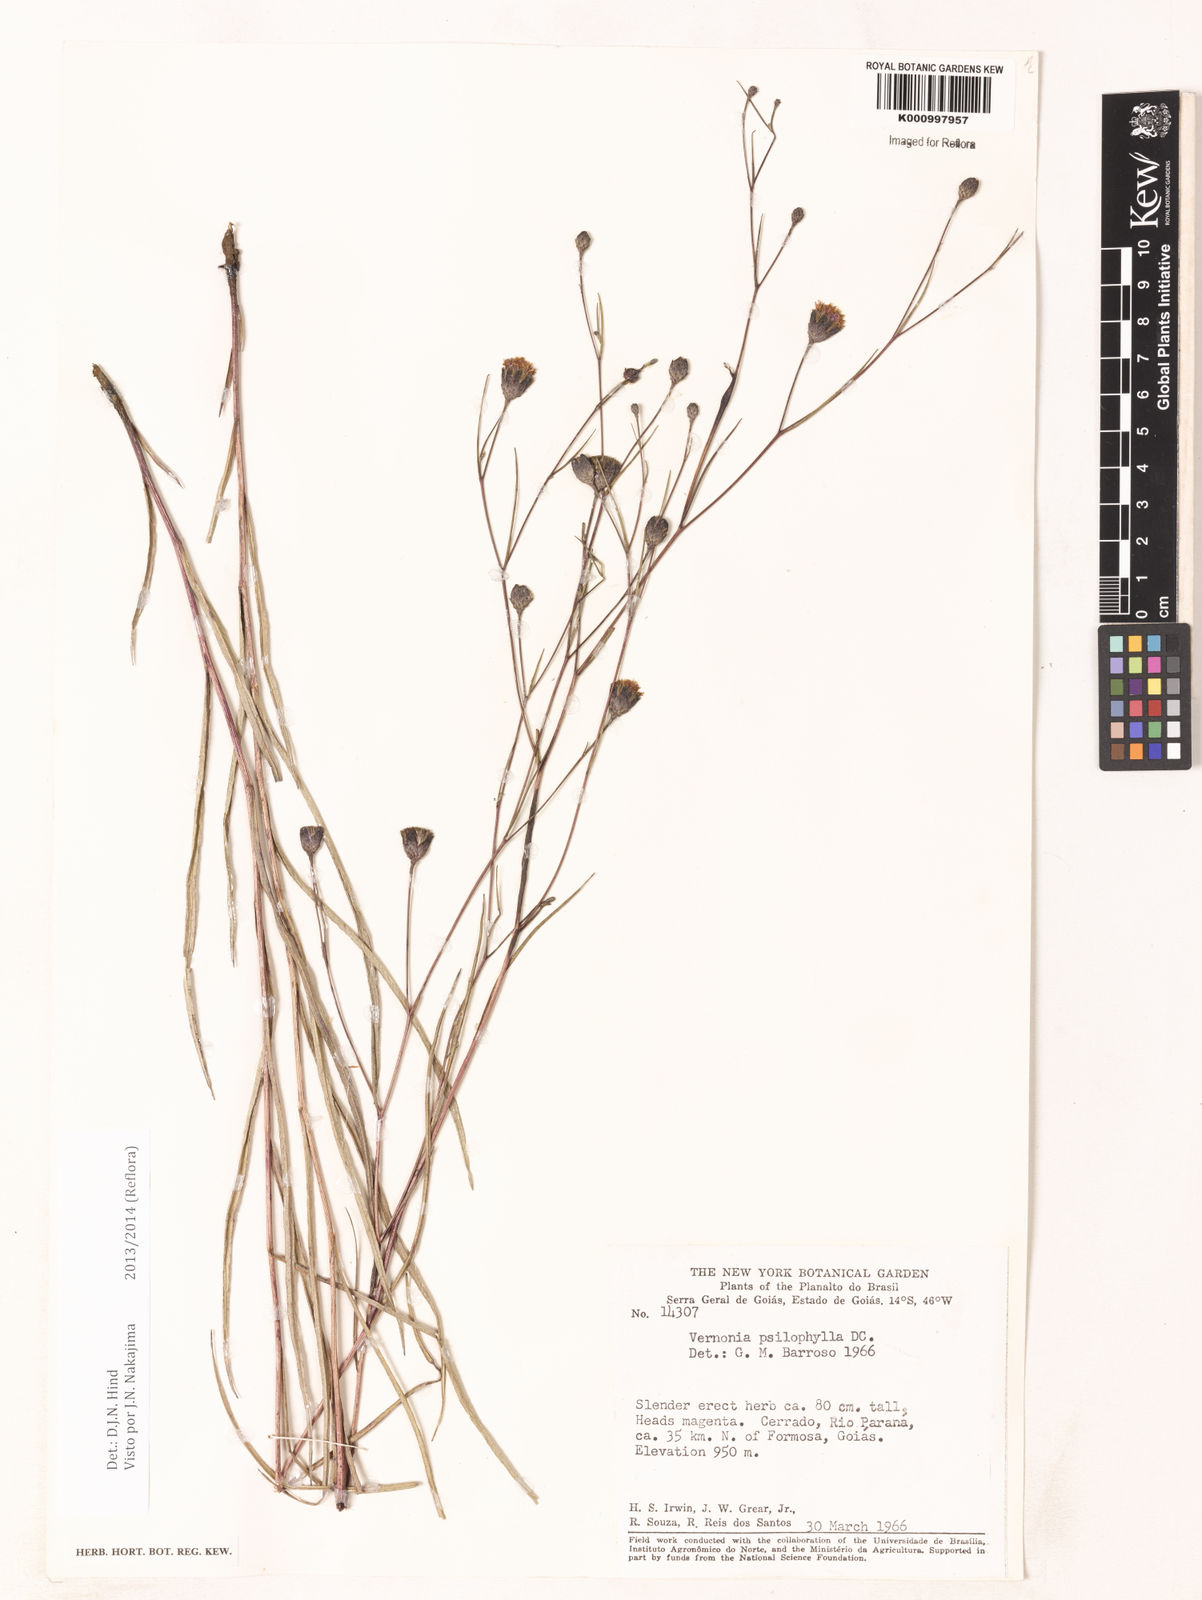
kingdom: Plantae
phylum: Tracheophyta
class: Magnoliopsida
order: Asterales
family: Asteraceae
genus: Lessingianthus
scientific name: Lessingianthus psilophyllus
